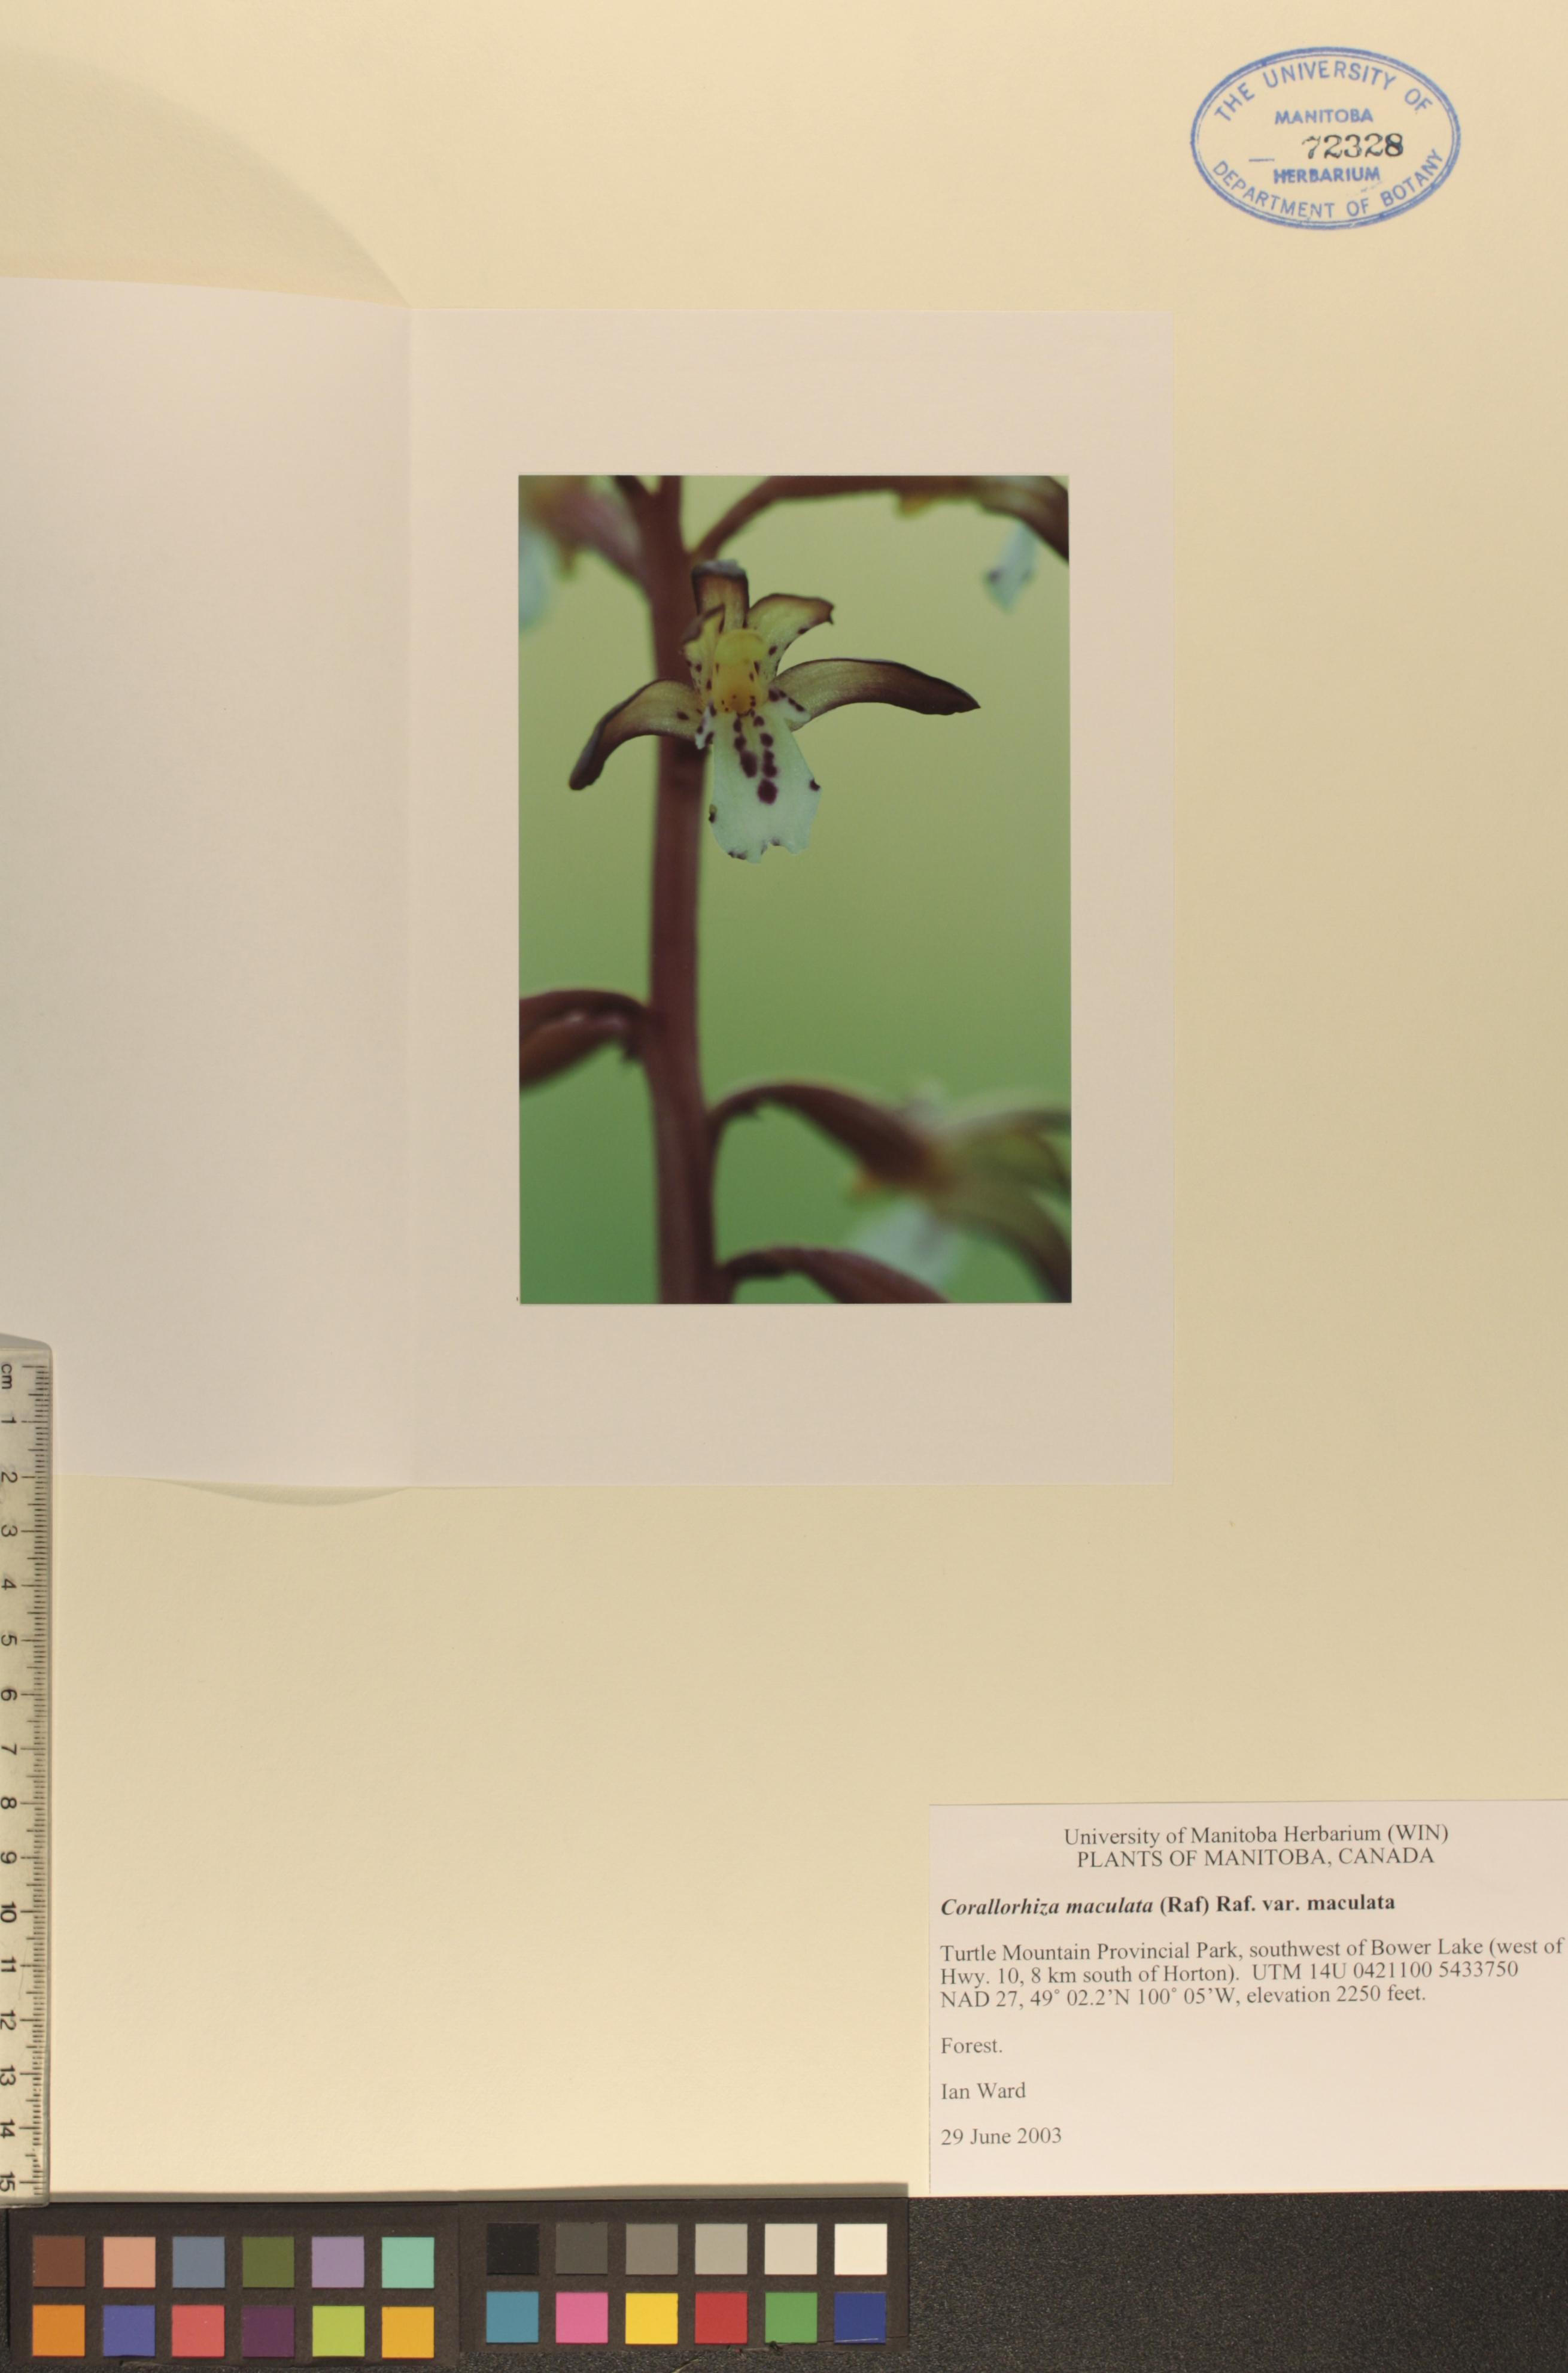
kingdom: Plantae
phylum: Tracheophyta
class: Liliopsida
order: Asparagales
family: Orchidaceae
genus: Corallorhiza
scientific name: Corallorhiza maculata
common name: Spotted coralroot
